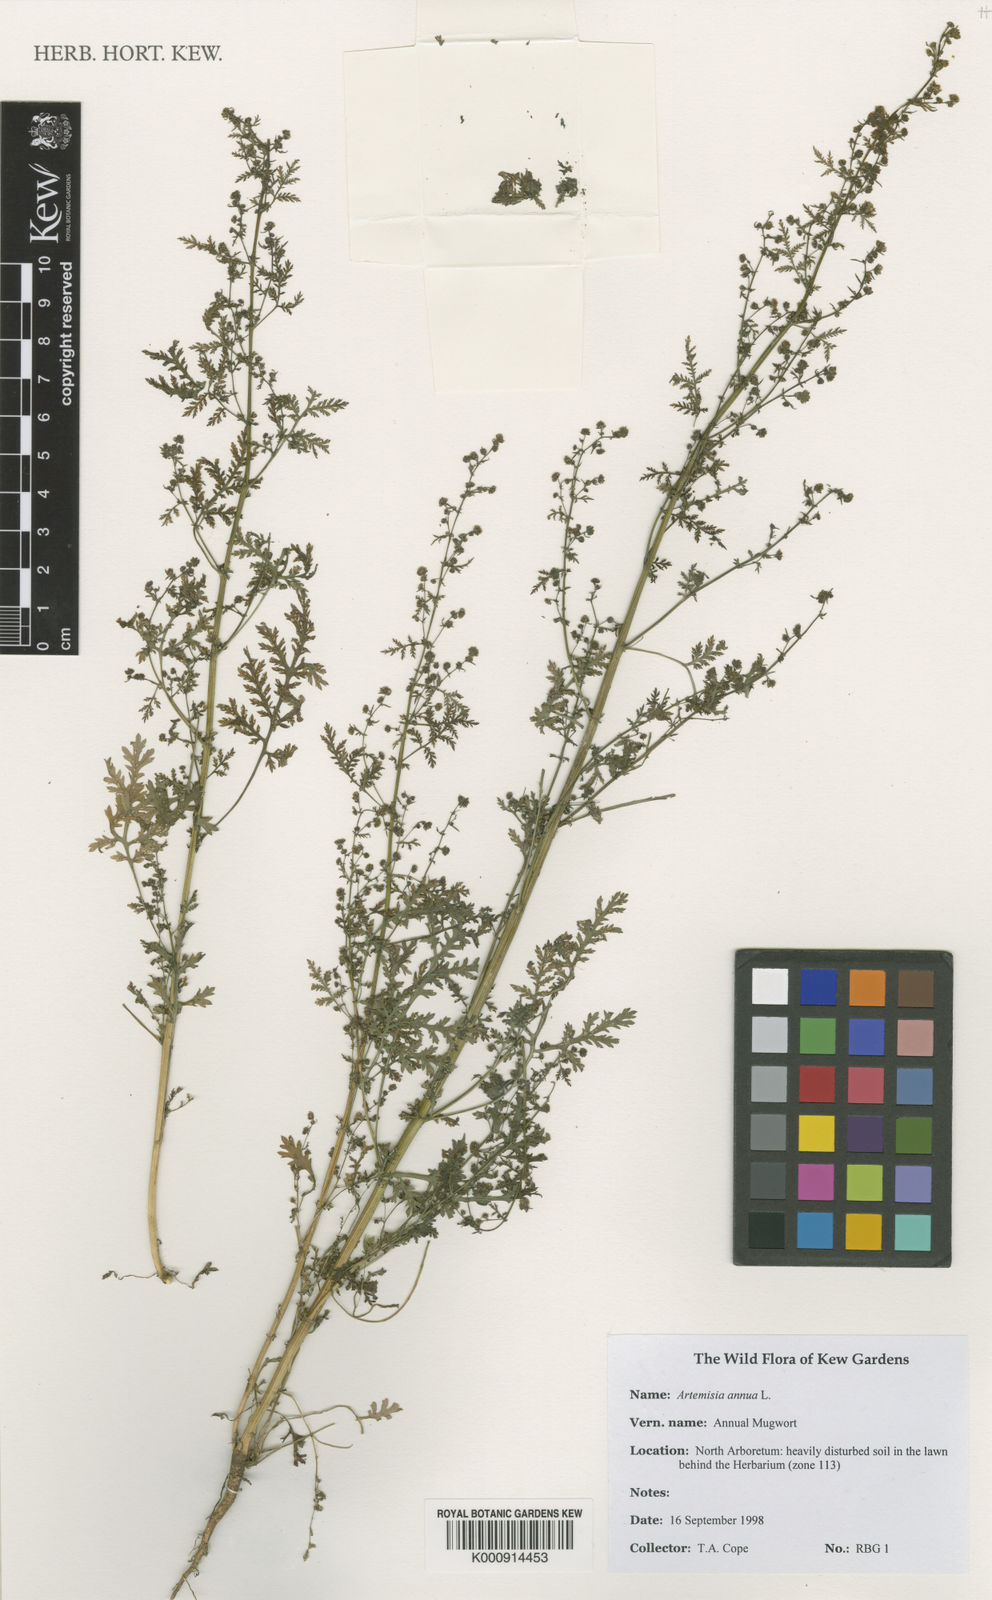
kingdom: Plantae
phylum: Tracheophyta
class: Magnoliopsida
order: Asterales
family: Asteraceae
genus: Artemisia
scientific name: Artemisia annua
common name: Sweet sagewort
